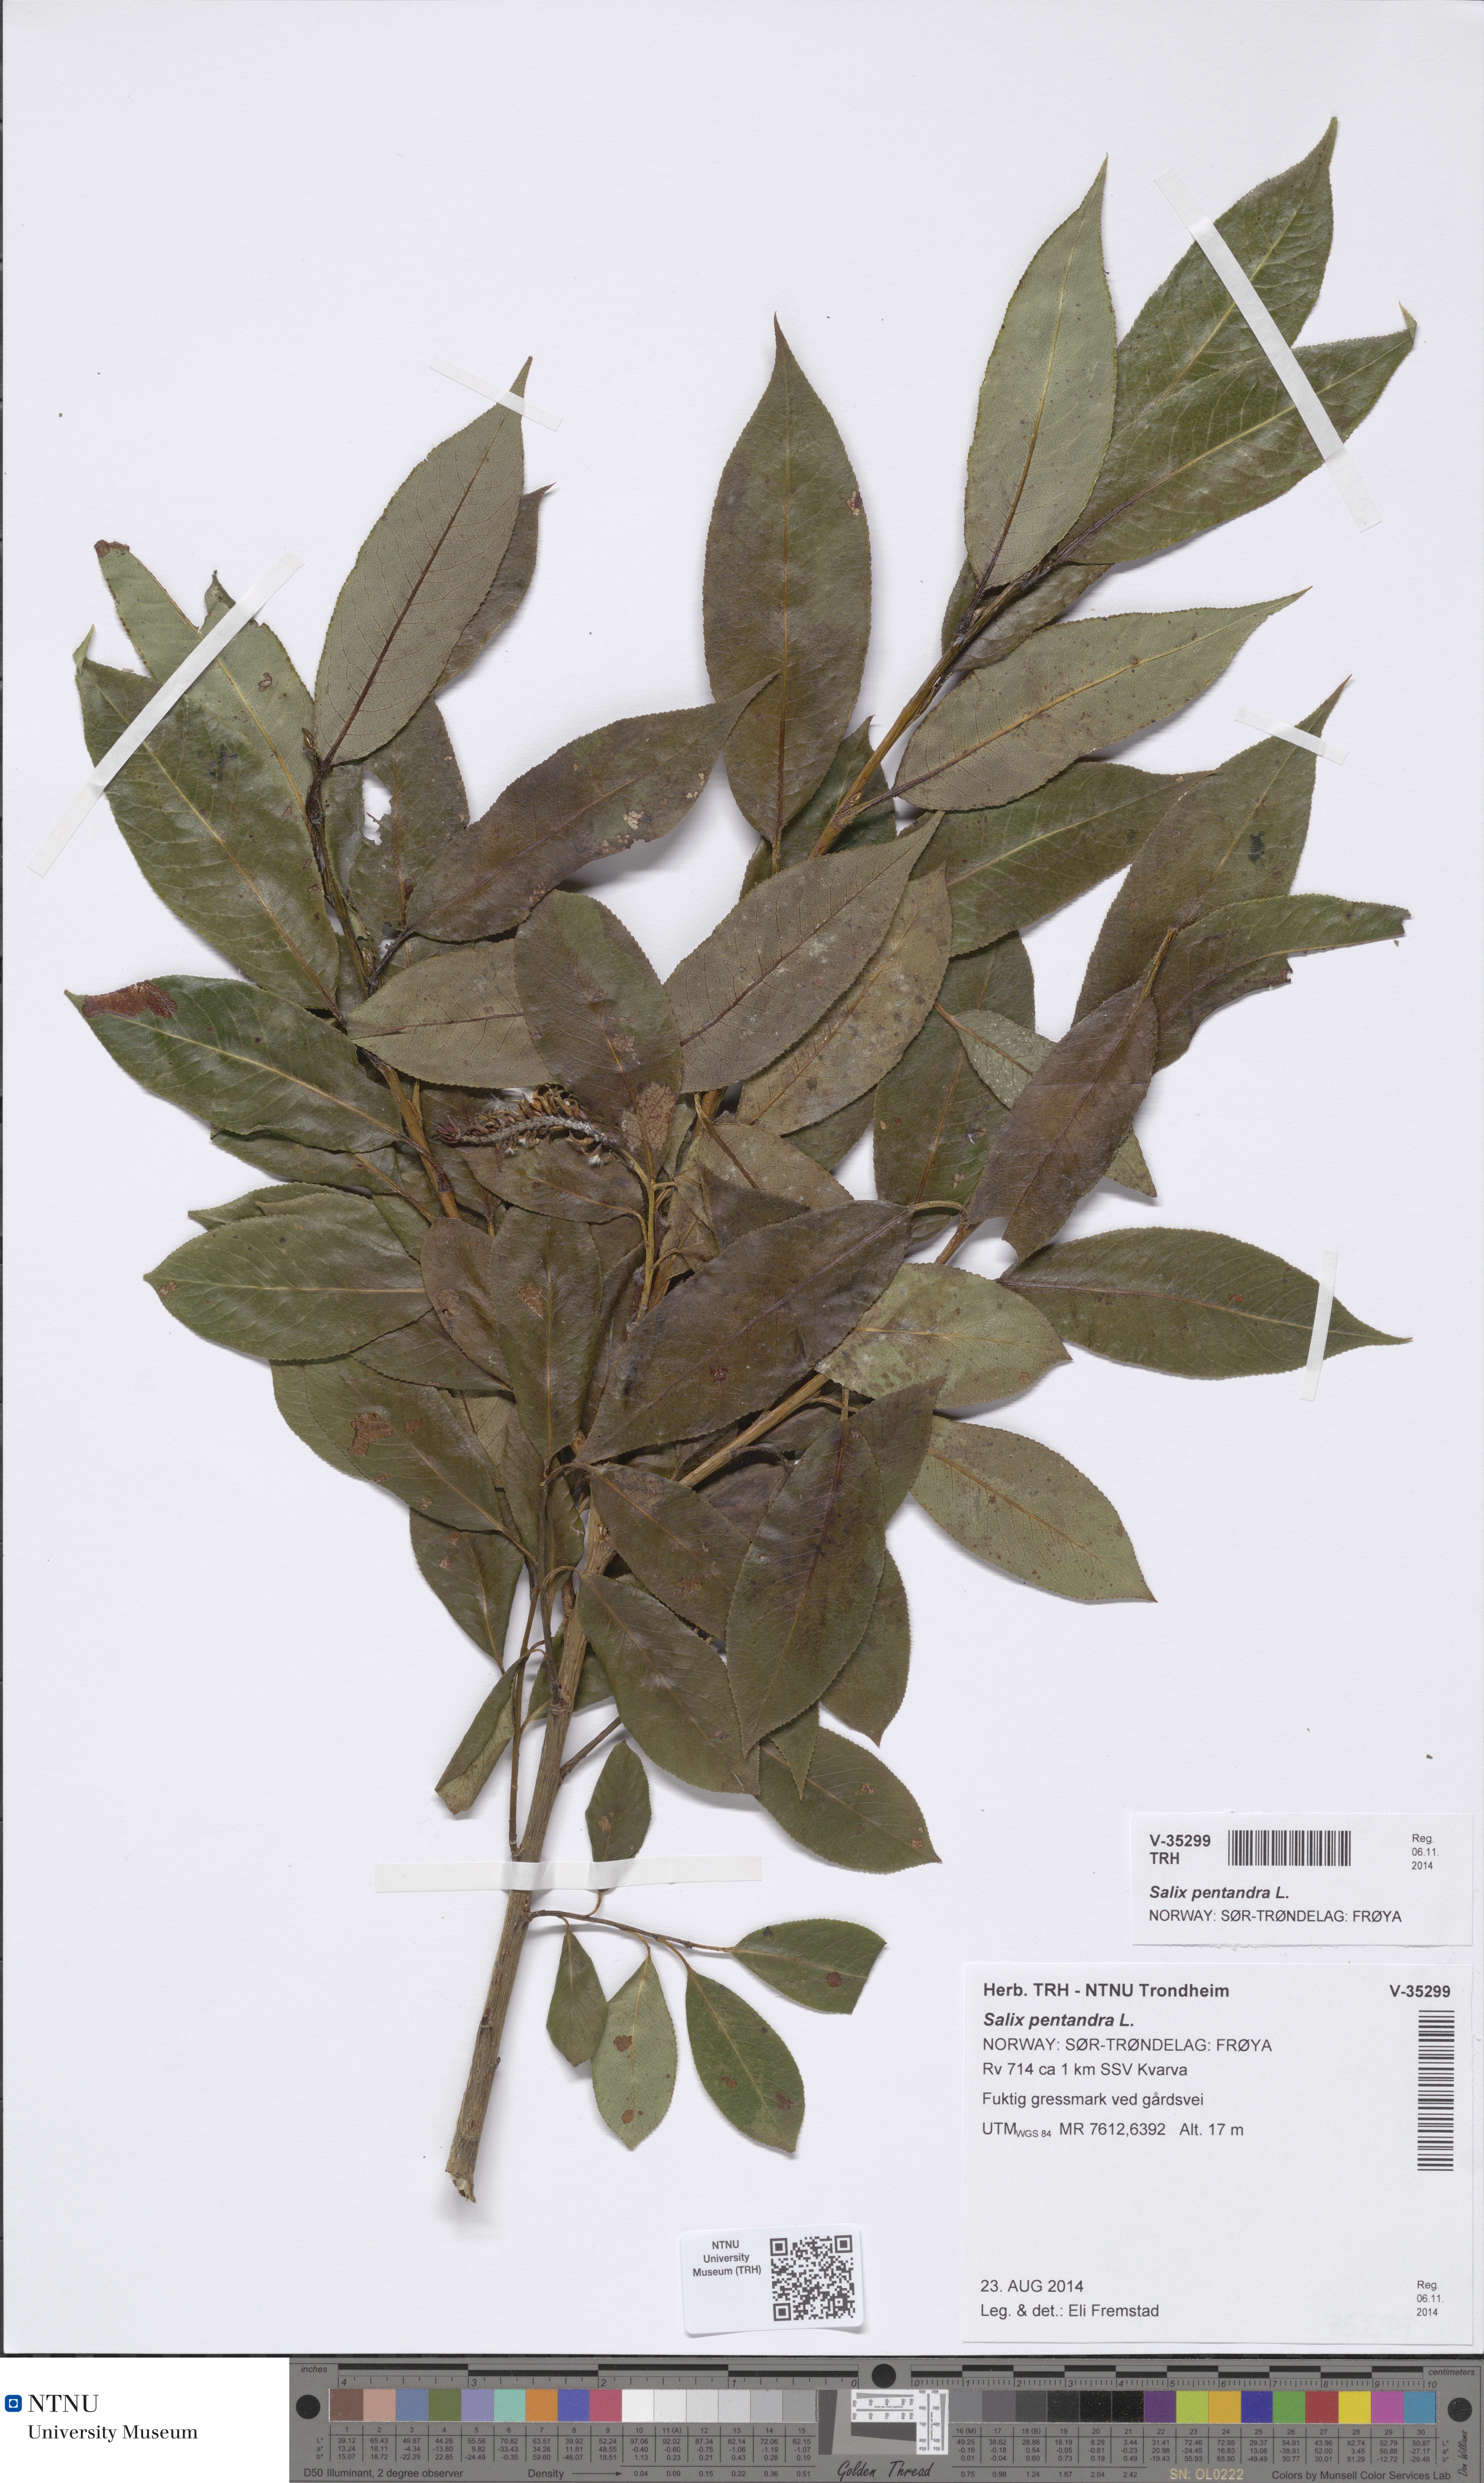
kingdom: Plantae
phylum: Tracheophyta
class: Magnoliopsida
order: Malpighiales
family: Salicaceae
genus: Salix
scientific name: Salix pentandra
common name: Bay willow
